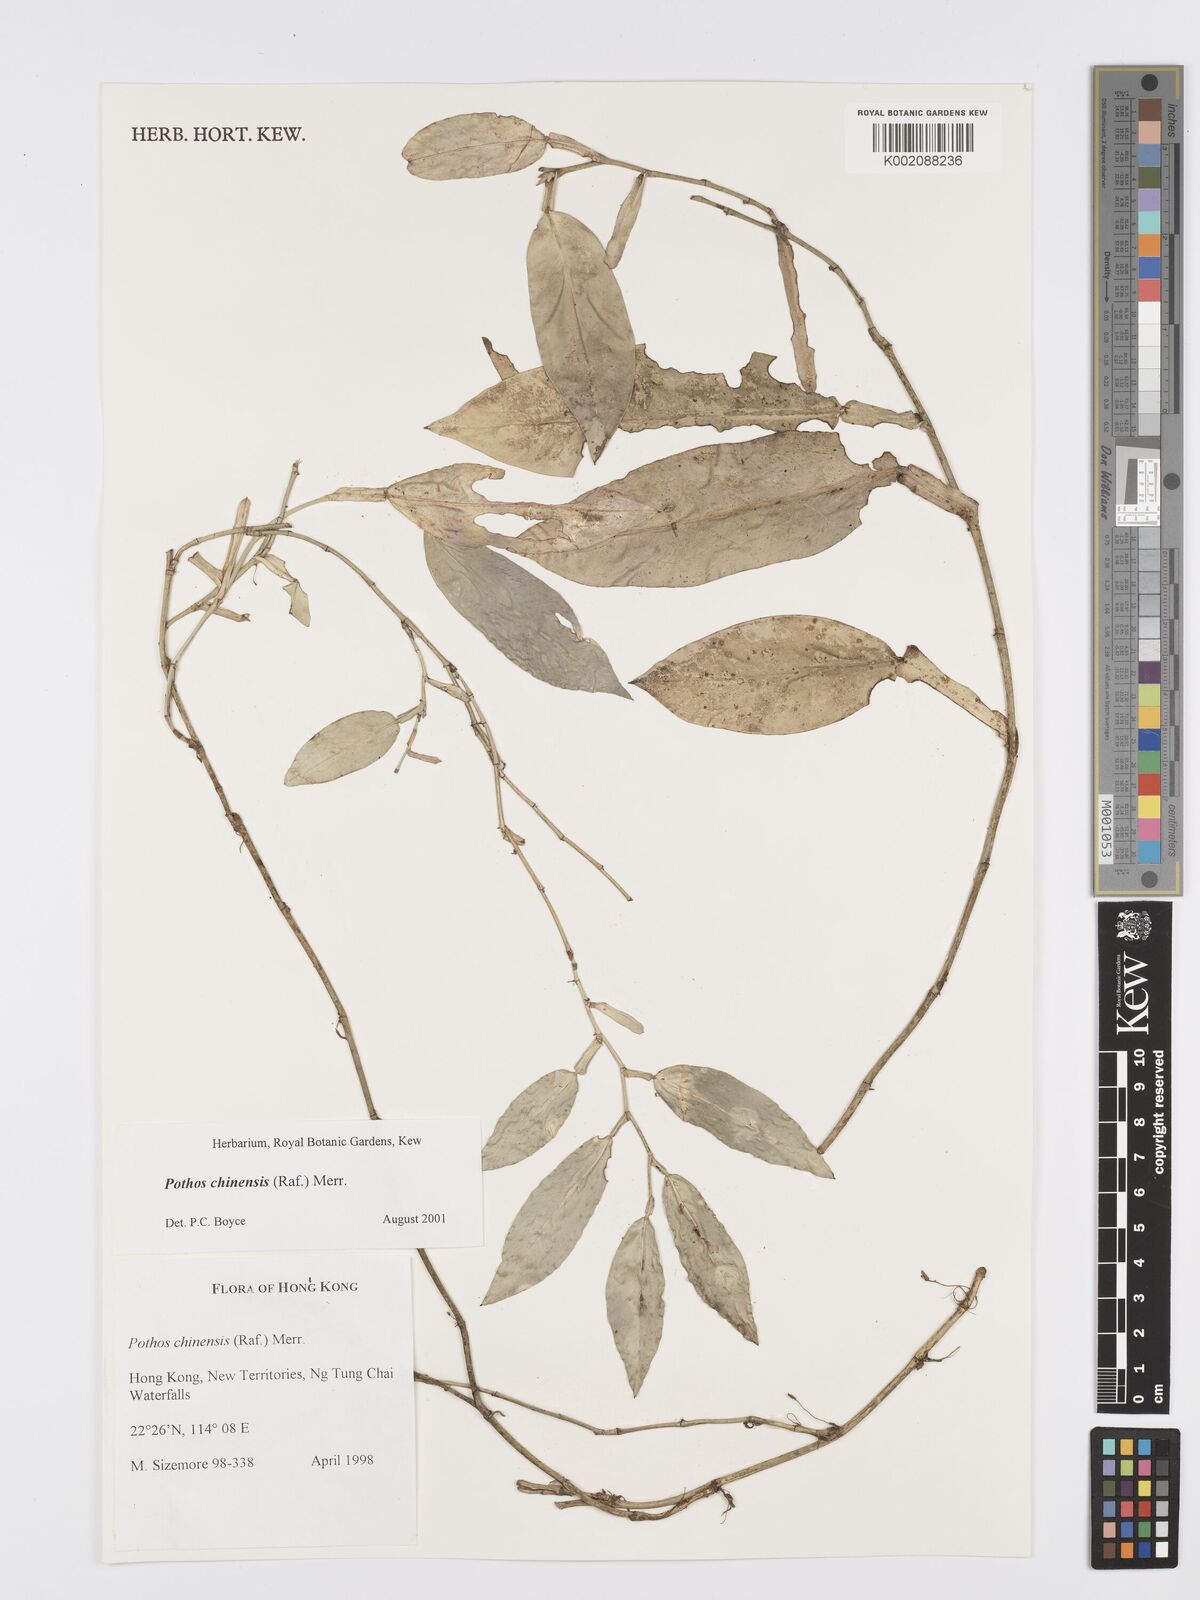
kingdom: Plantae
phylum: Tracheophyta
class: Liliopsida
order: Alismatales
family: Araceae
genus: Pothos
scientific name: Pothos chinensis
